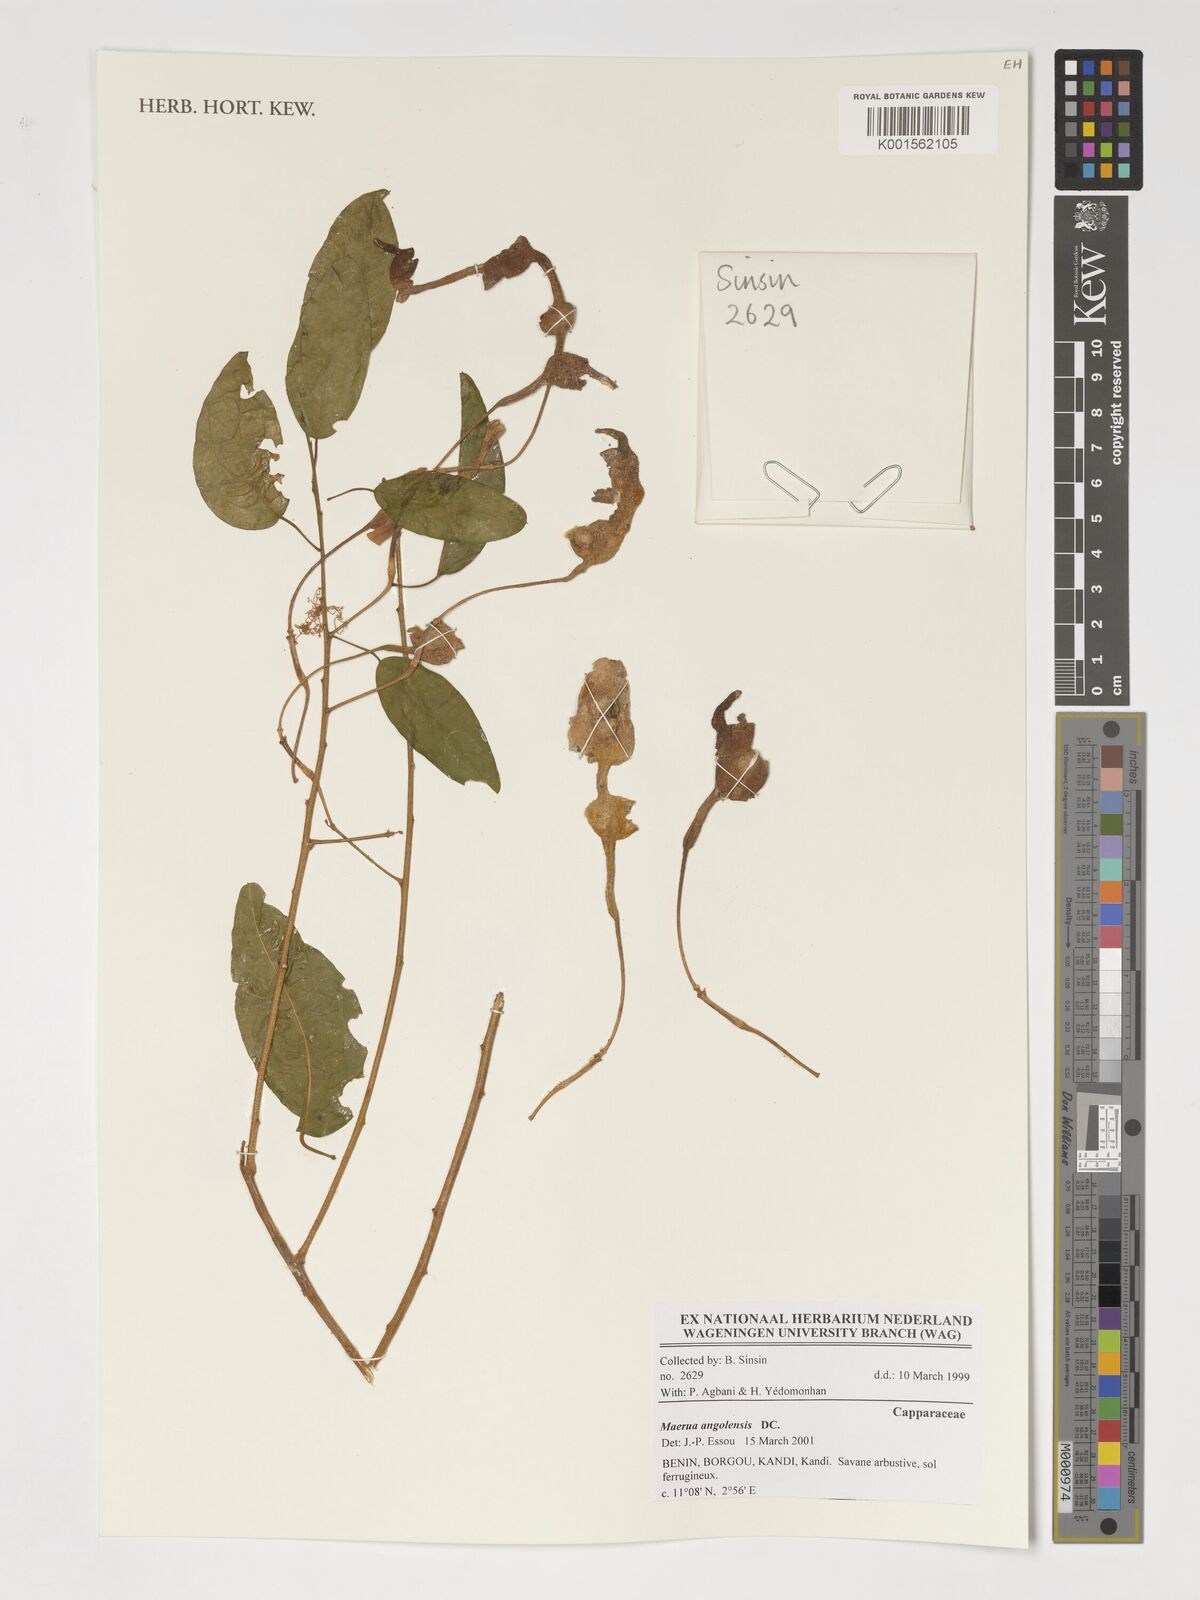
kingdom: Plantae
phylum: Tracheophyta
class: Magnoliopsida
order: Brassicales
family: Capparaceae
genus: Maerua
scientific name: Maerua angolensis
